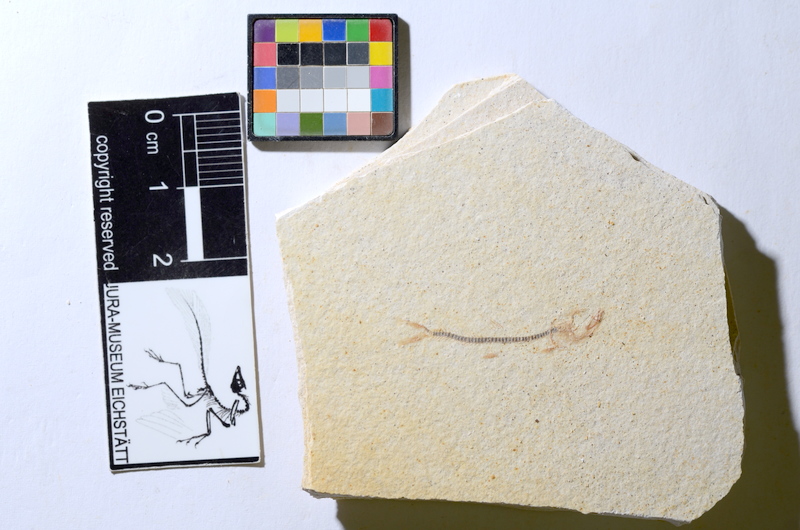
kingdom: Animalia
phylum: Chordata
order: Salmoniformes
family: Orthogonikleithridae
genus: Orthogonikleithrus
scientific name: Orthogonikleithrus hoelli
